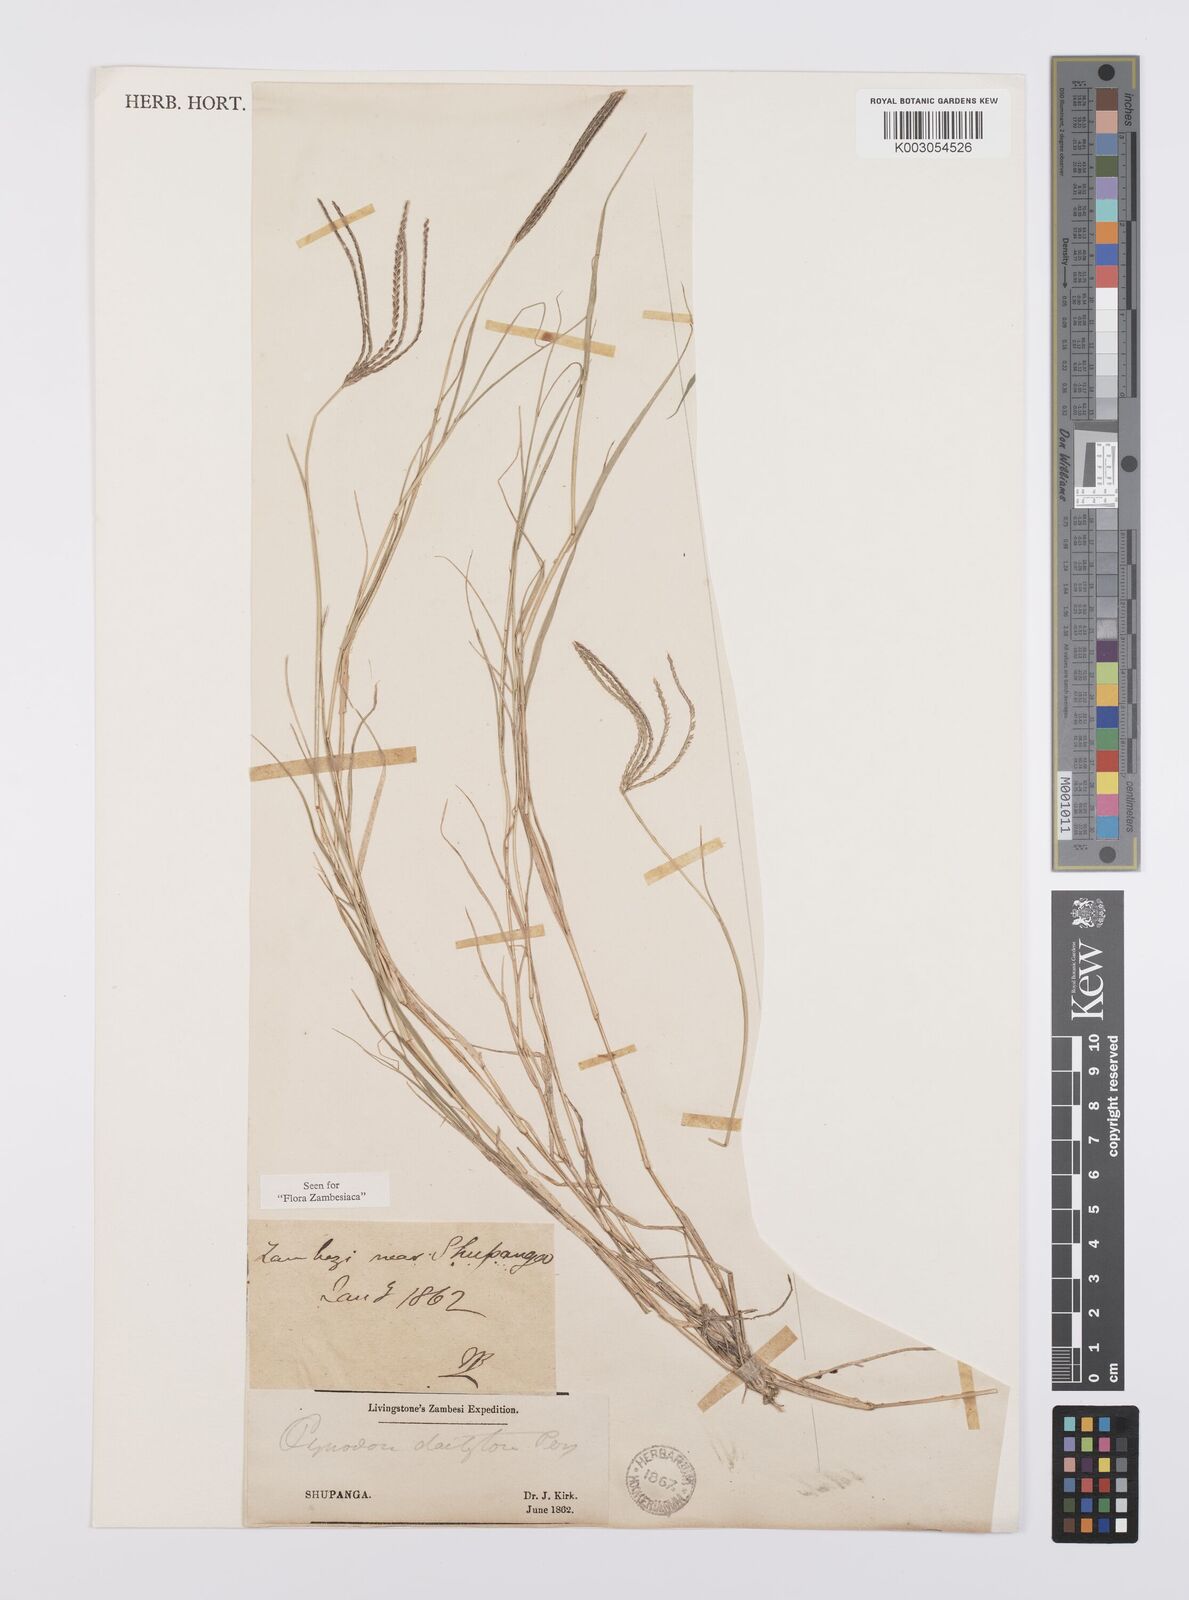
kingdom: Plantae
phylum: Tracheophyta
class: Liliopsida
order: Poales
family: Poaceae
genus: Cynodon
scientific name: Cynodon dactylon
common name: Bermuda grass
